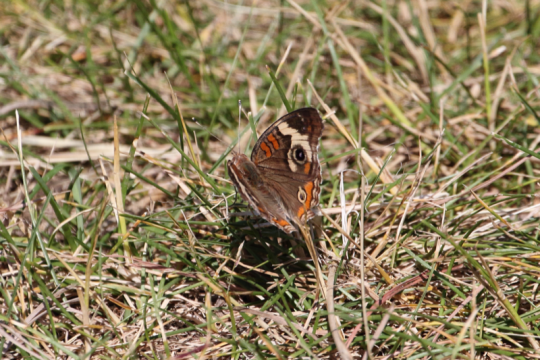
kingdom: Animalia
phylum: Arthropoda
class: Insecta
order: Lepidoptera
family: Nymphalidae
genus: Junonia
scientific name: Junonia coenia
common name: Common Buckeye
